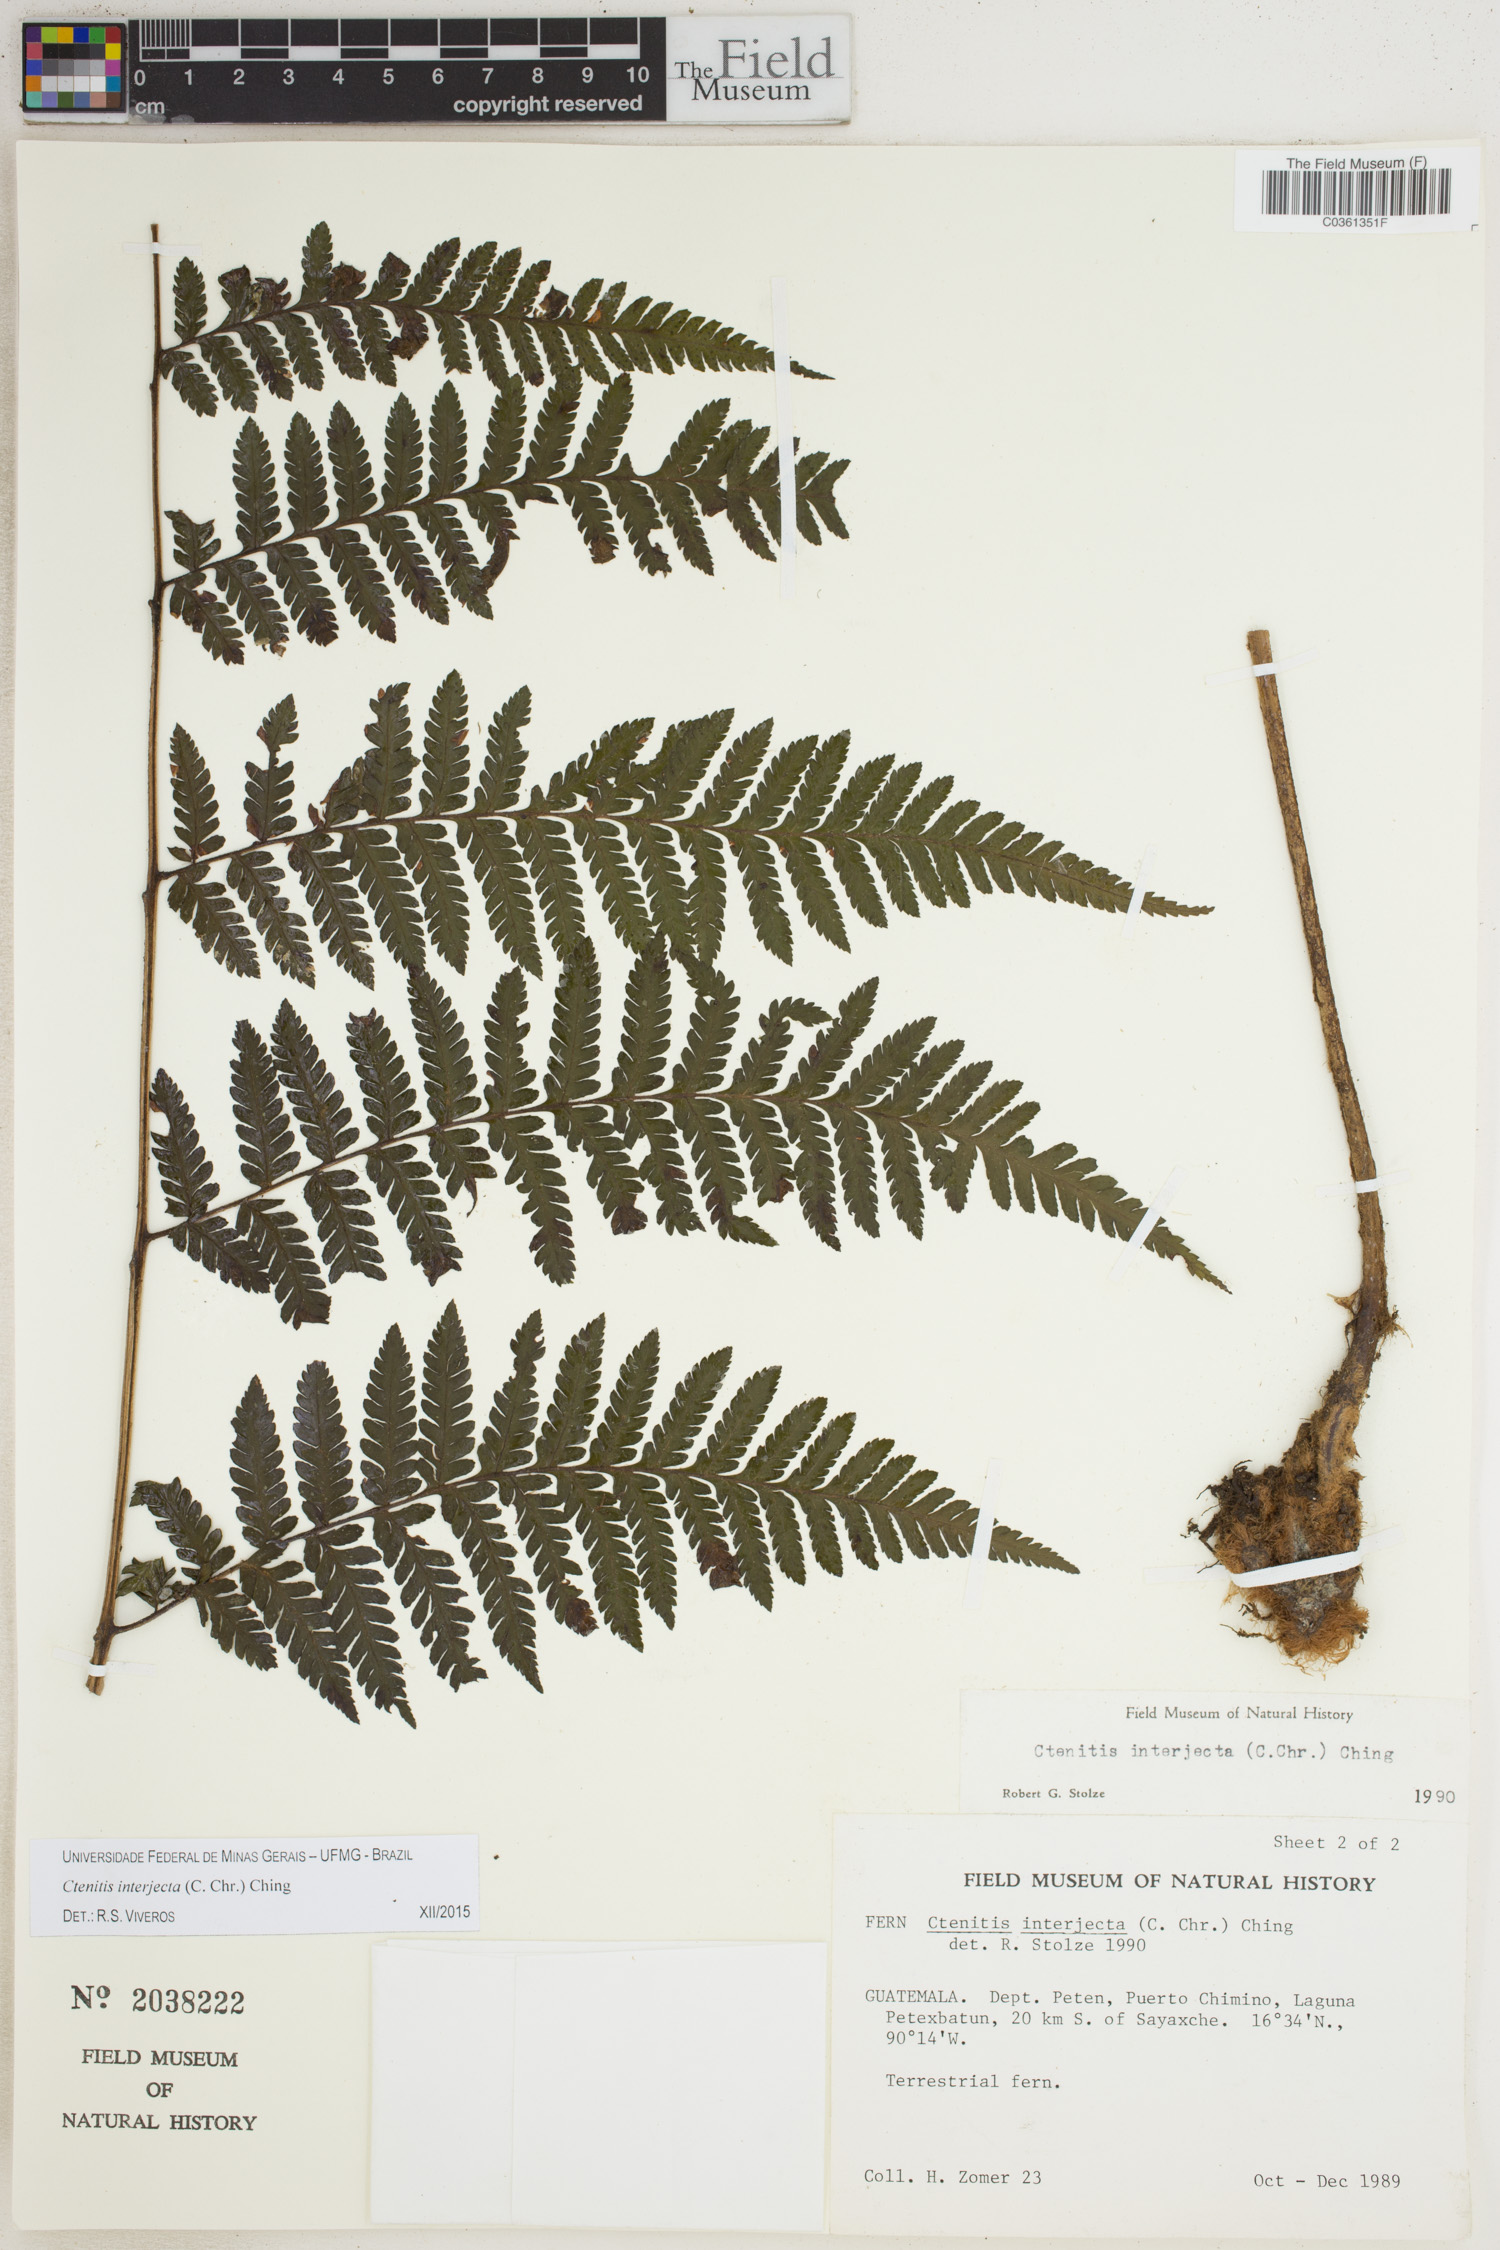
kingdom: Plantae
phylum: Tracheophyta
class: Polypodiopsida
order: Polypodiales
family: Dryopteridaceae
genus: Ctenitis
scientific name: Ctenitis interjecta
